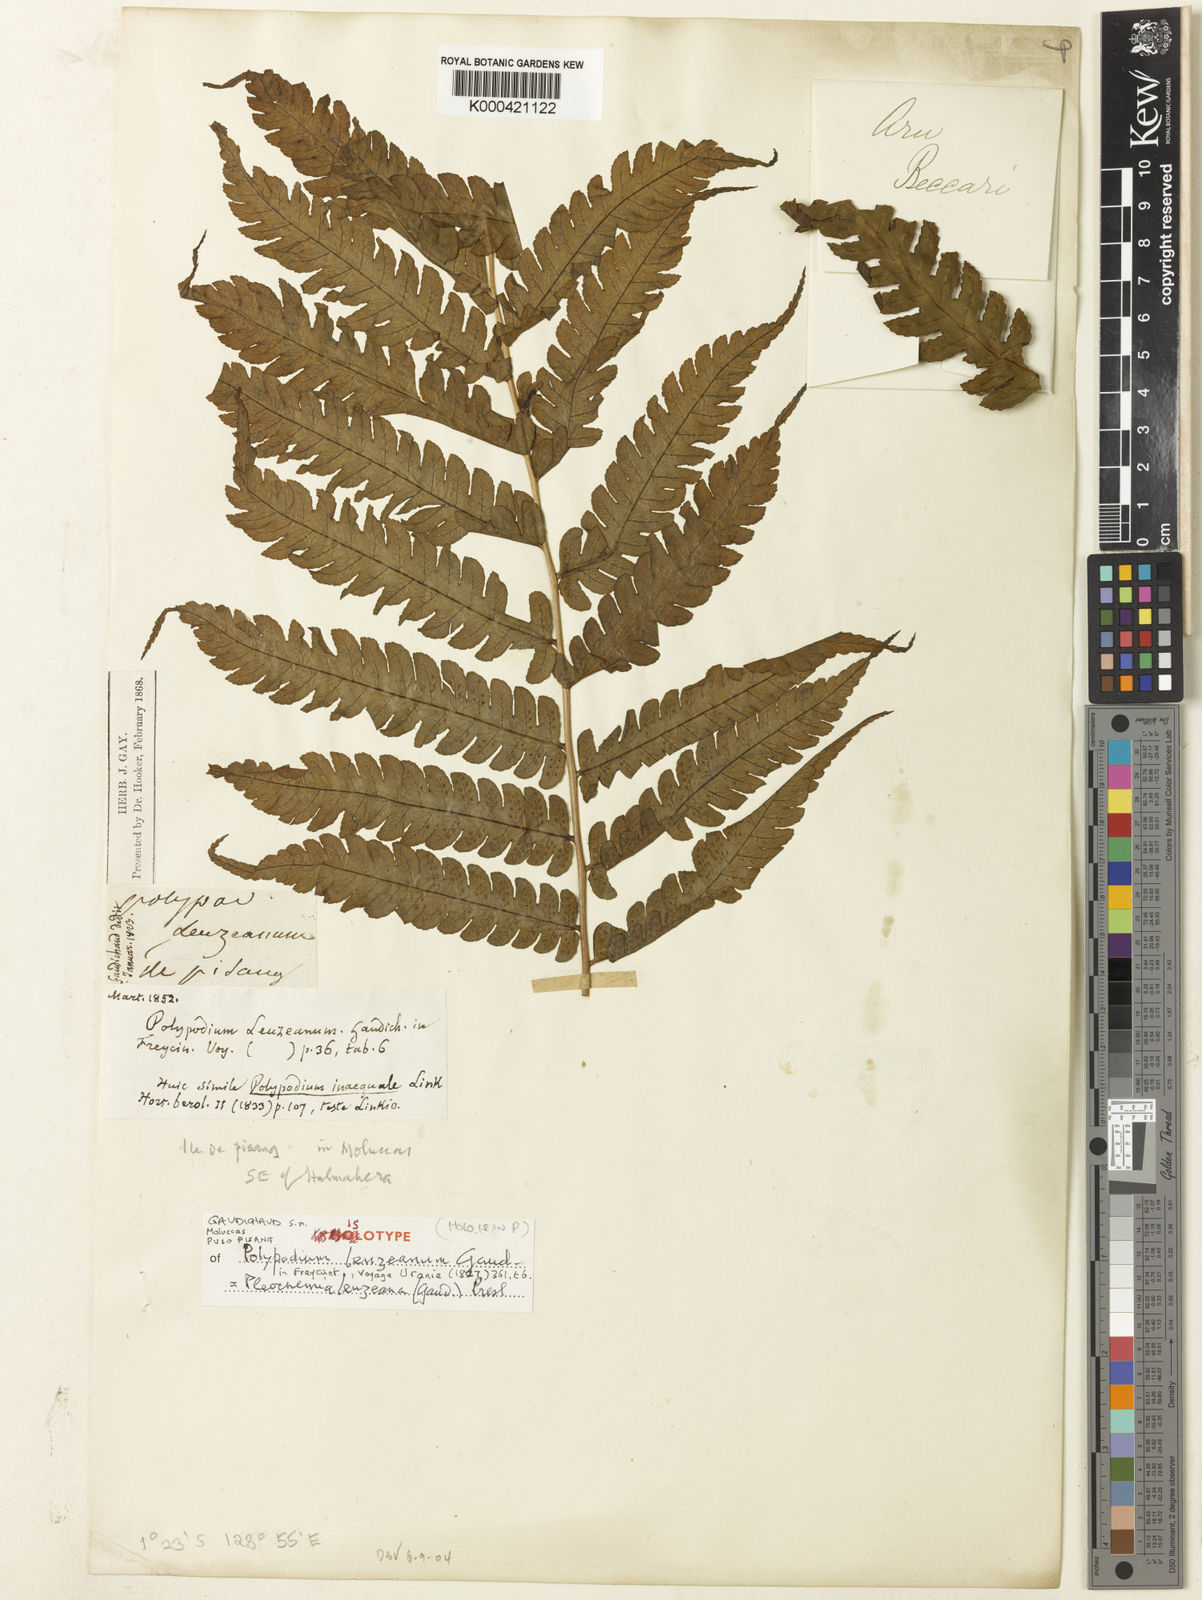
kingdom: Plantae
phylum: Tracheophyta
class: Polypodiopsida
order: Polypodiales
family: Dryopteridaceae
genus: Pleocnemia
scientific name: Pleocnemia leuzeana
